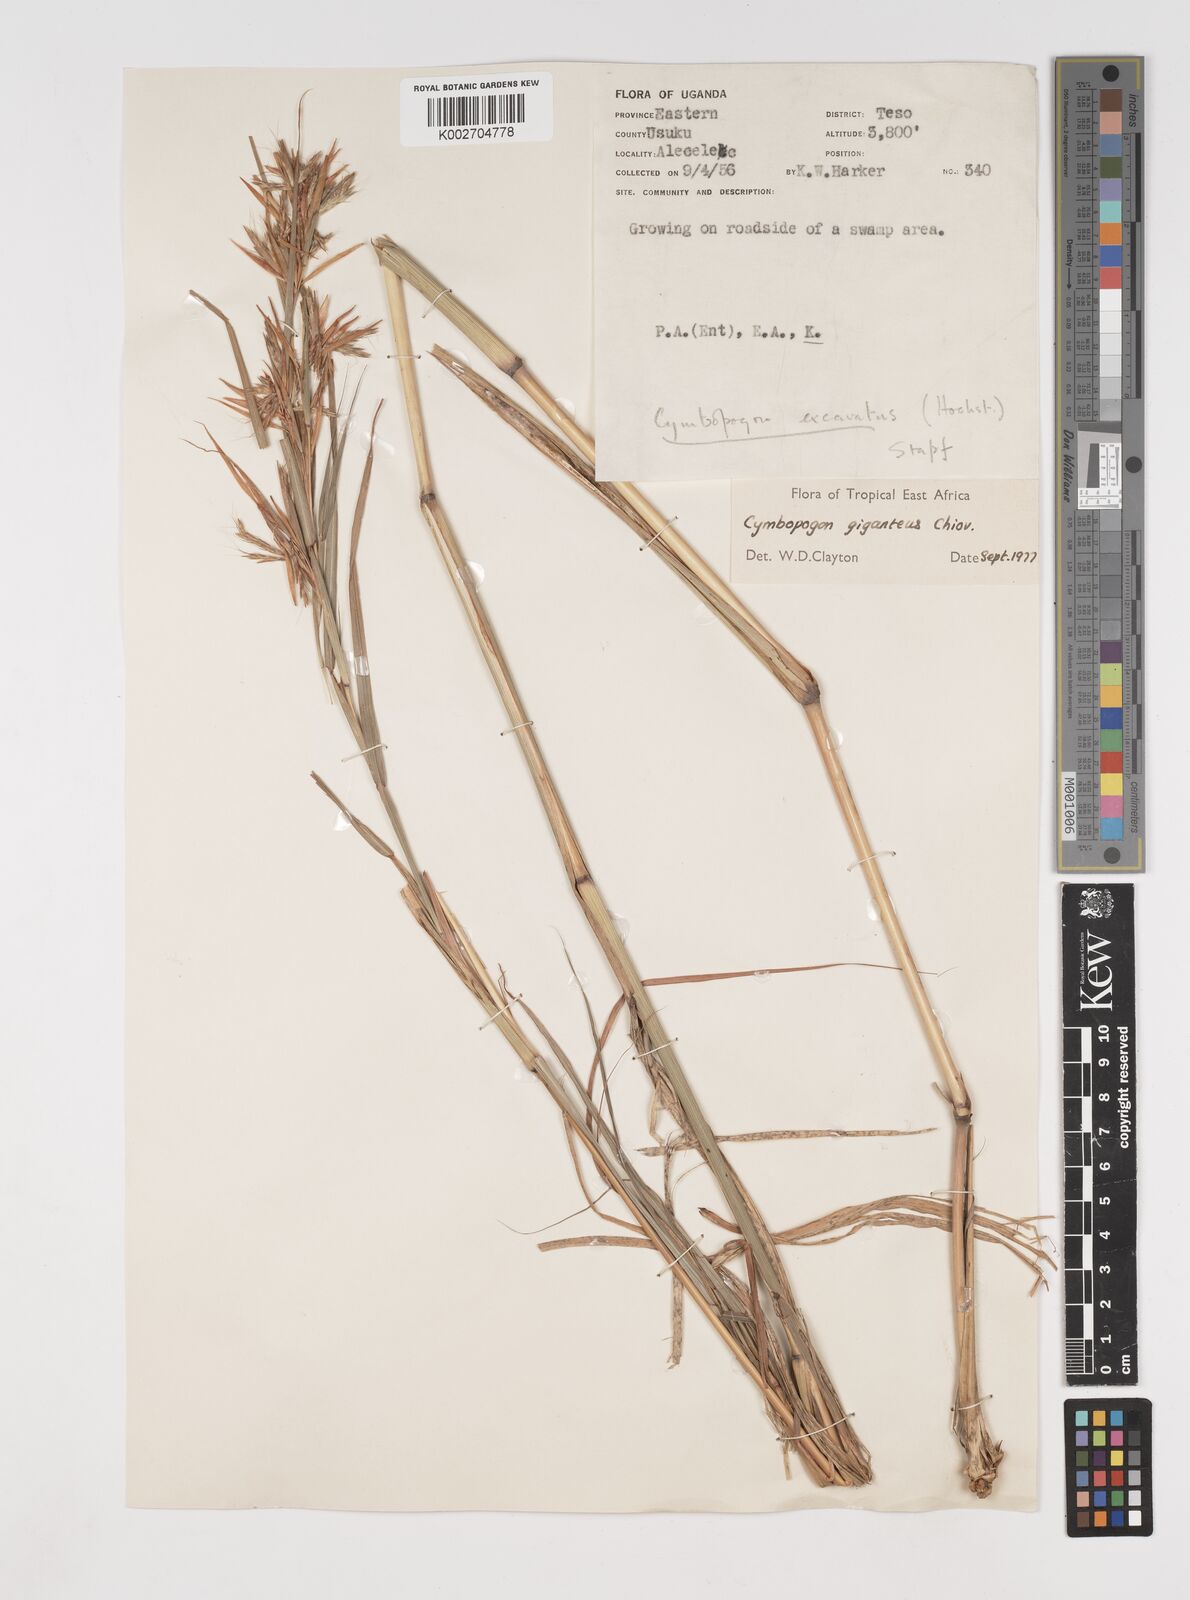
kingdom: Plantae
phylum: Tracheophyta
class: Liliopsida
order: Poales
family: Poaceae
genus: Cymbopogon
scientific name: Cymbopogon giganteus
